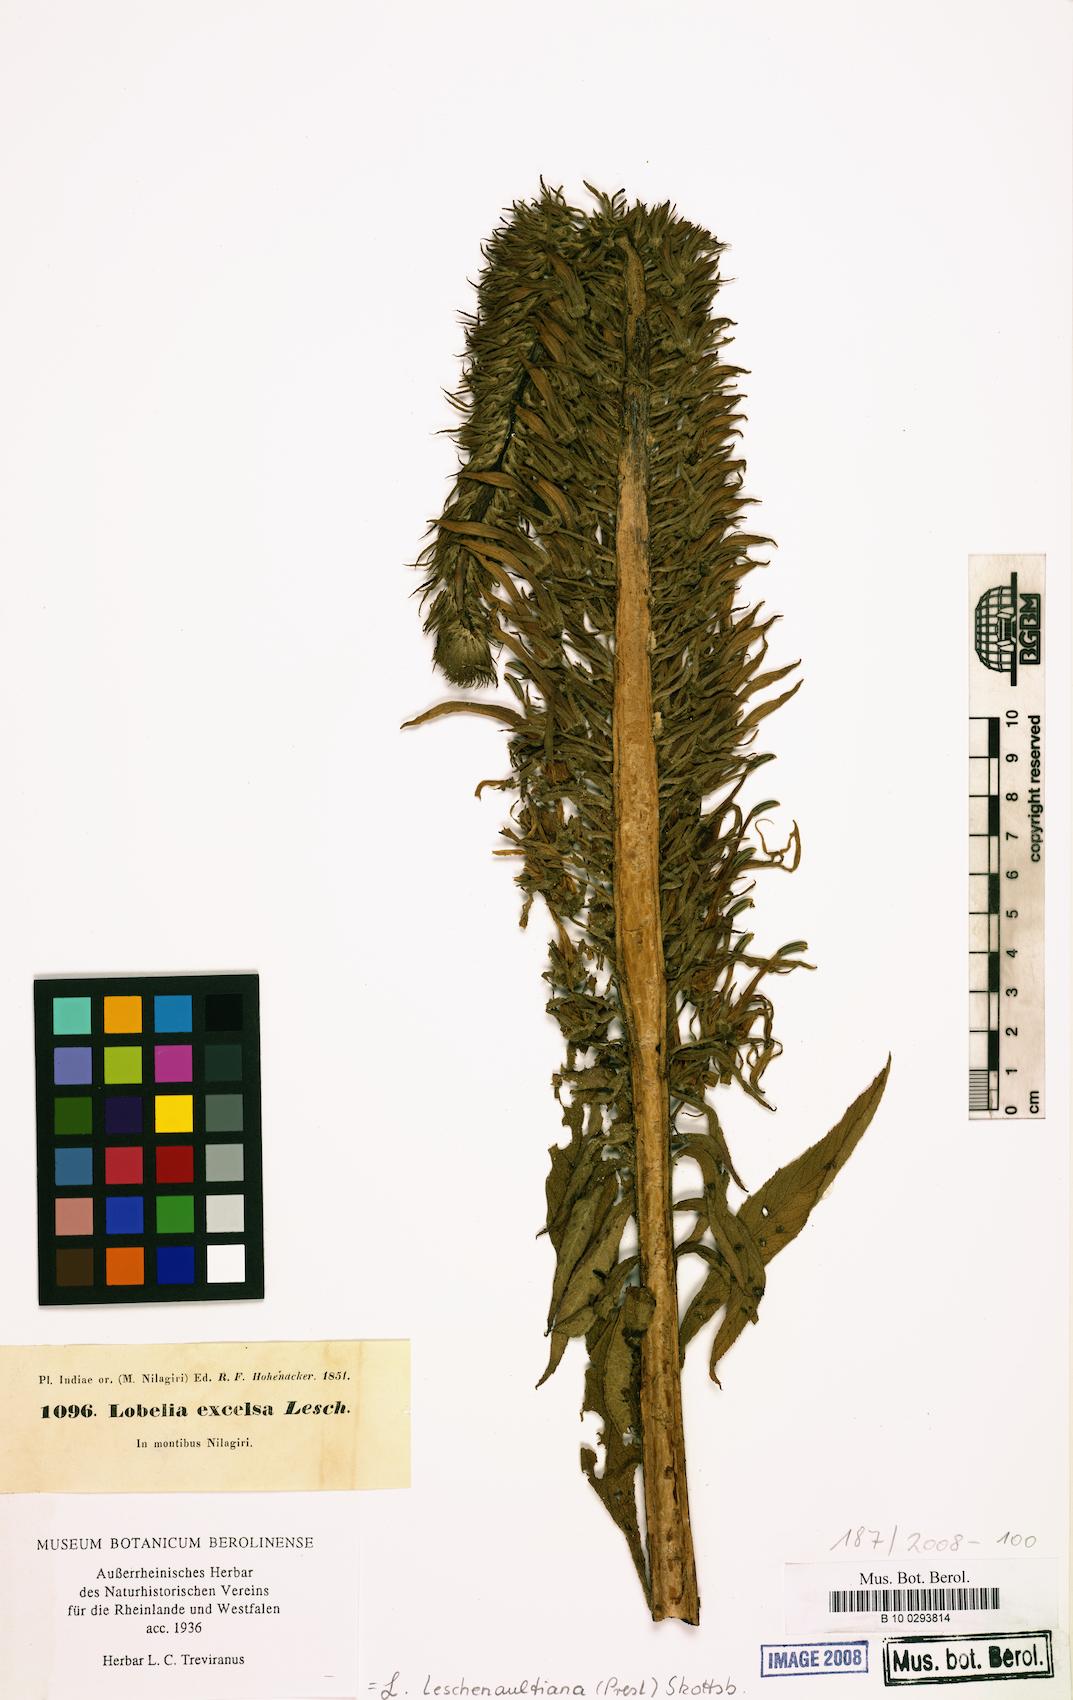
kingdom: Plantae
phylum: Tracheophyta
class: Magnoliopsida
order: Asterales
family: Campanulaceae
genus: Lobelia
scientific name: Lobelia leschenaultiana
